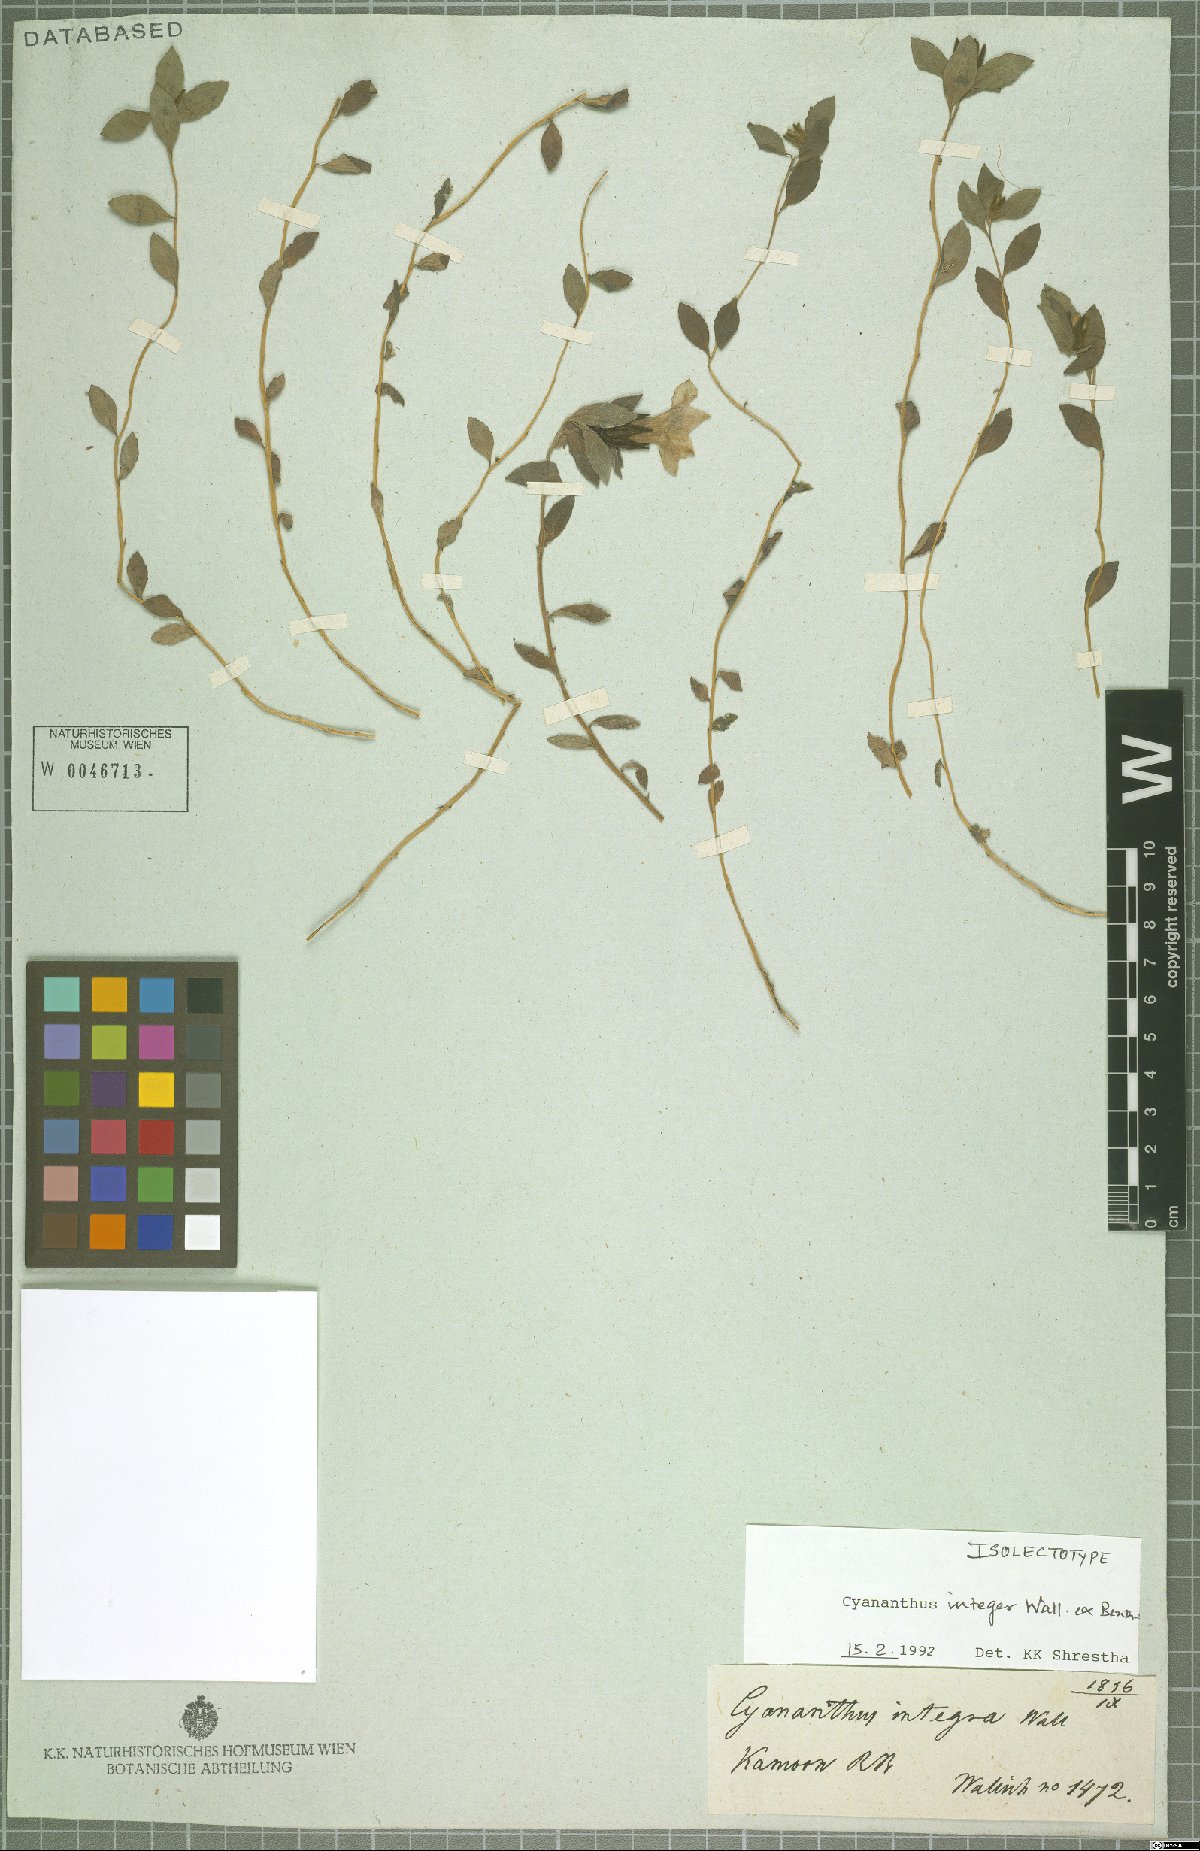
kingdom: Plantae
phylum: Tracheophyta
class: Magnoliopsida
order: Asterales
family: Campanulaceae
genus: Cyananthus
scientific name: Cyananthus integer
